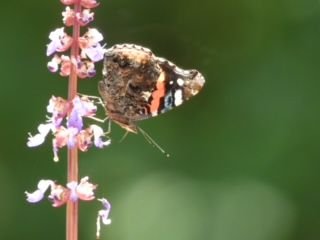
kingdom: Animalia
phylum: Arthropoda
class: Insecta
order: Lepidoptera
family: Nymphalidae
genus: Vanessa
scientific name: Vanessa atalanta
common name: Red Admiral
